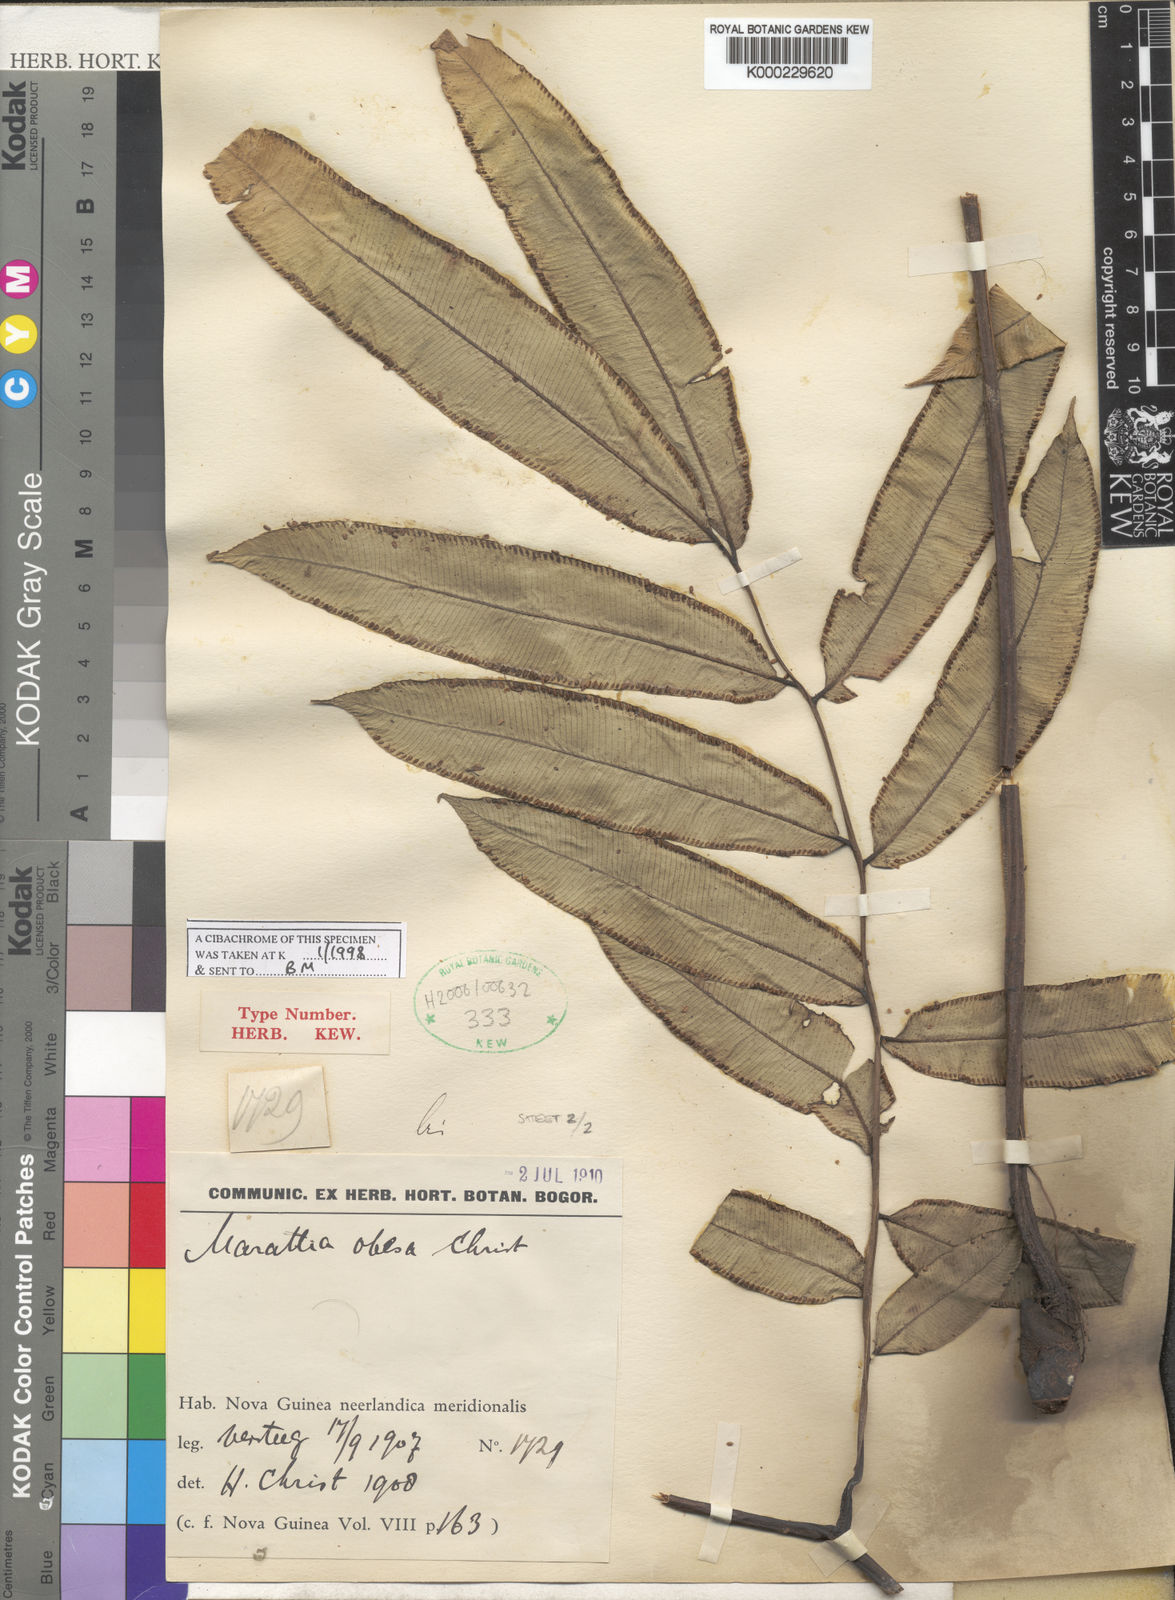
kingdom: Plantae
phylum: Tracheophyta
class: Polypodiopsida
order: Marattiales
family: Marattiaceae
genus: Ptisana
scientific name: Ptisana obesa
